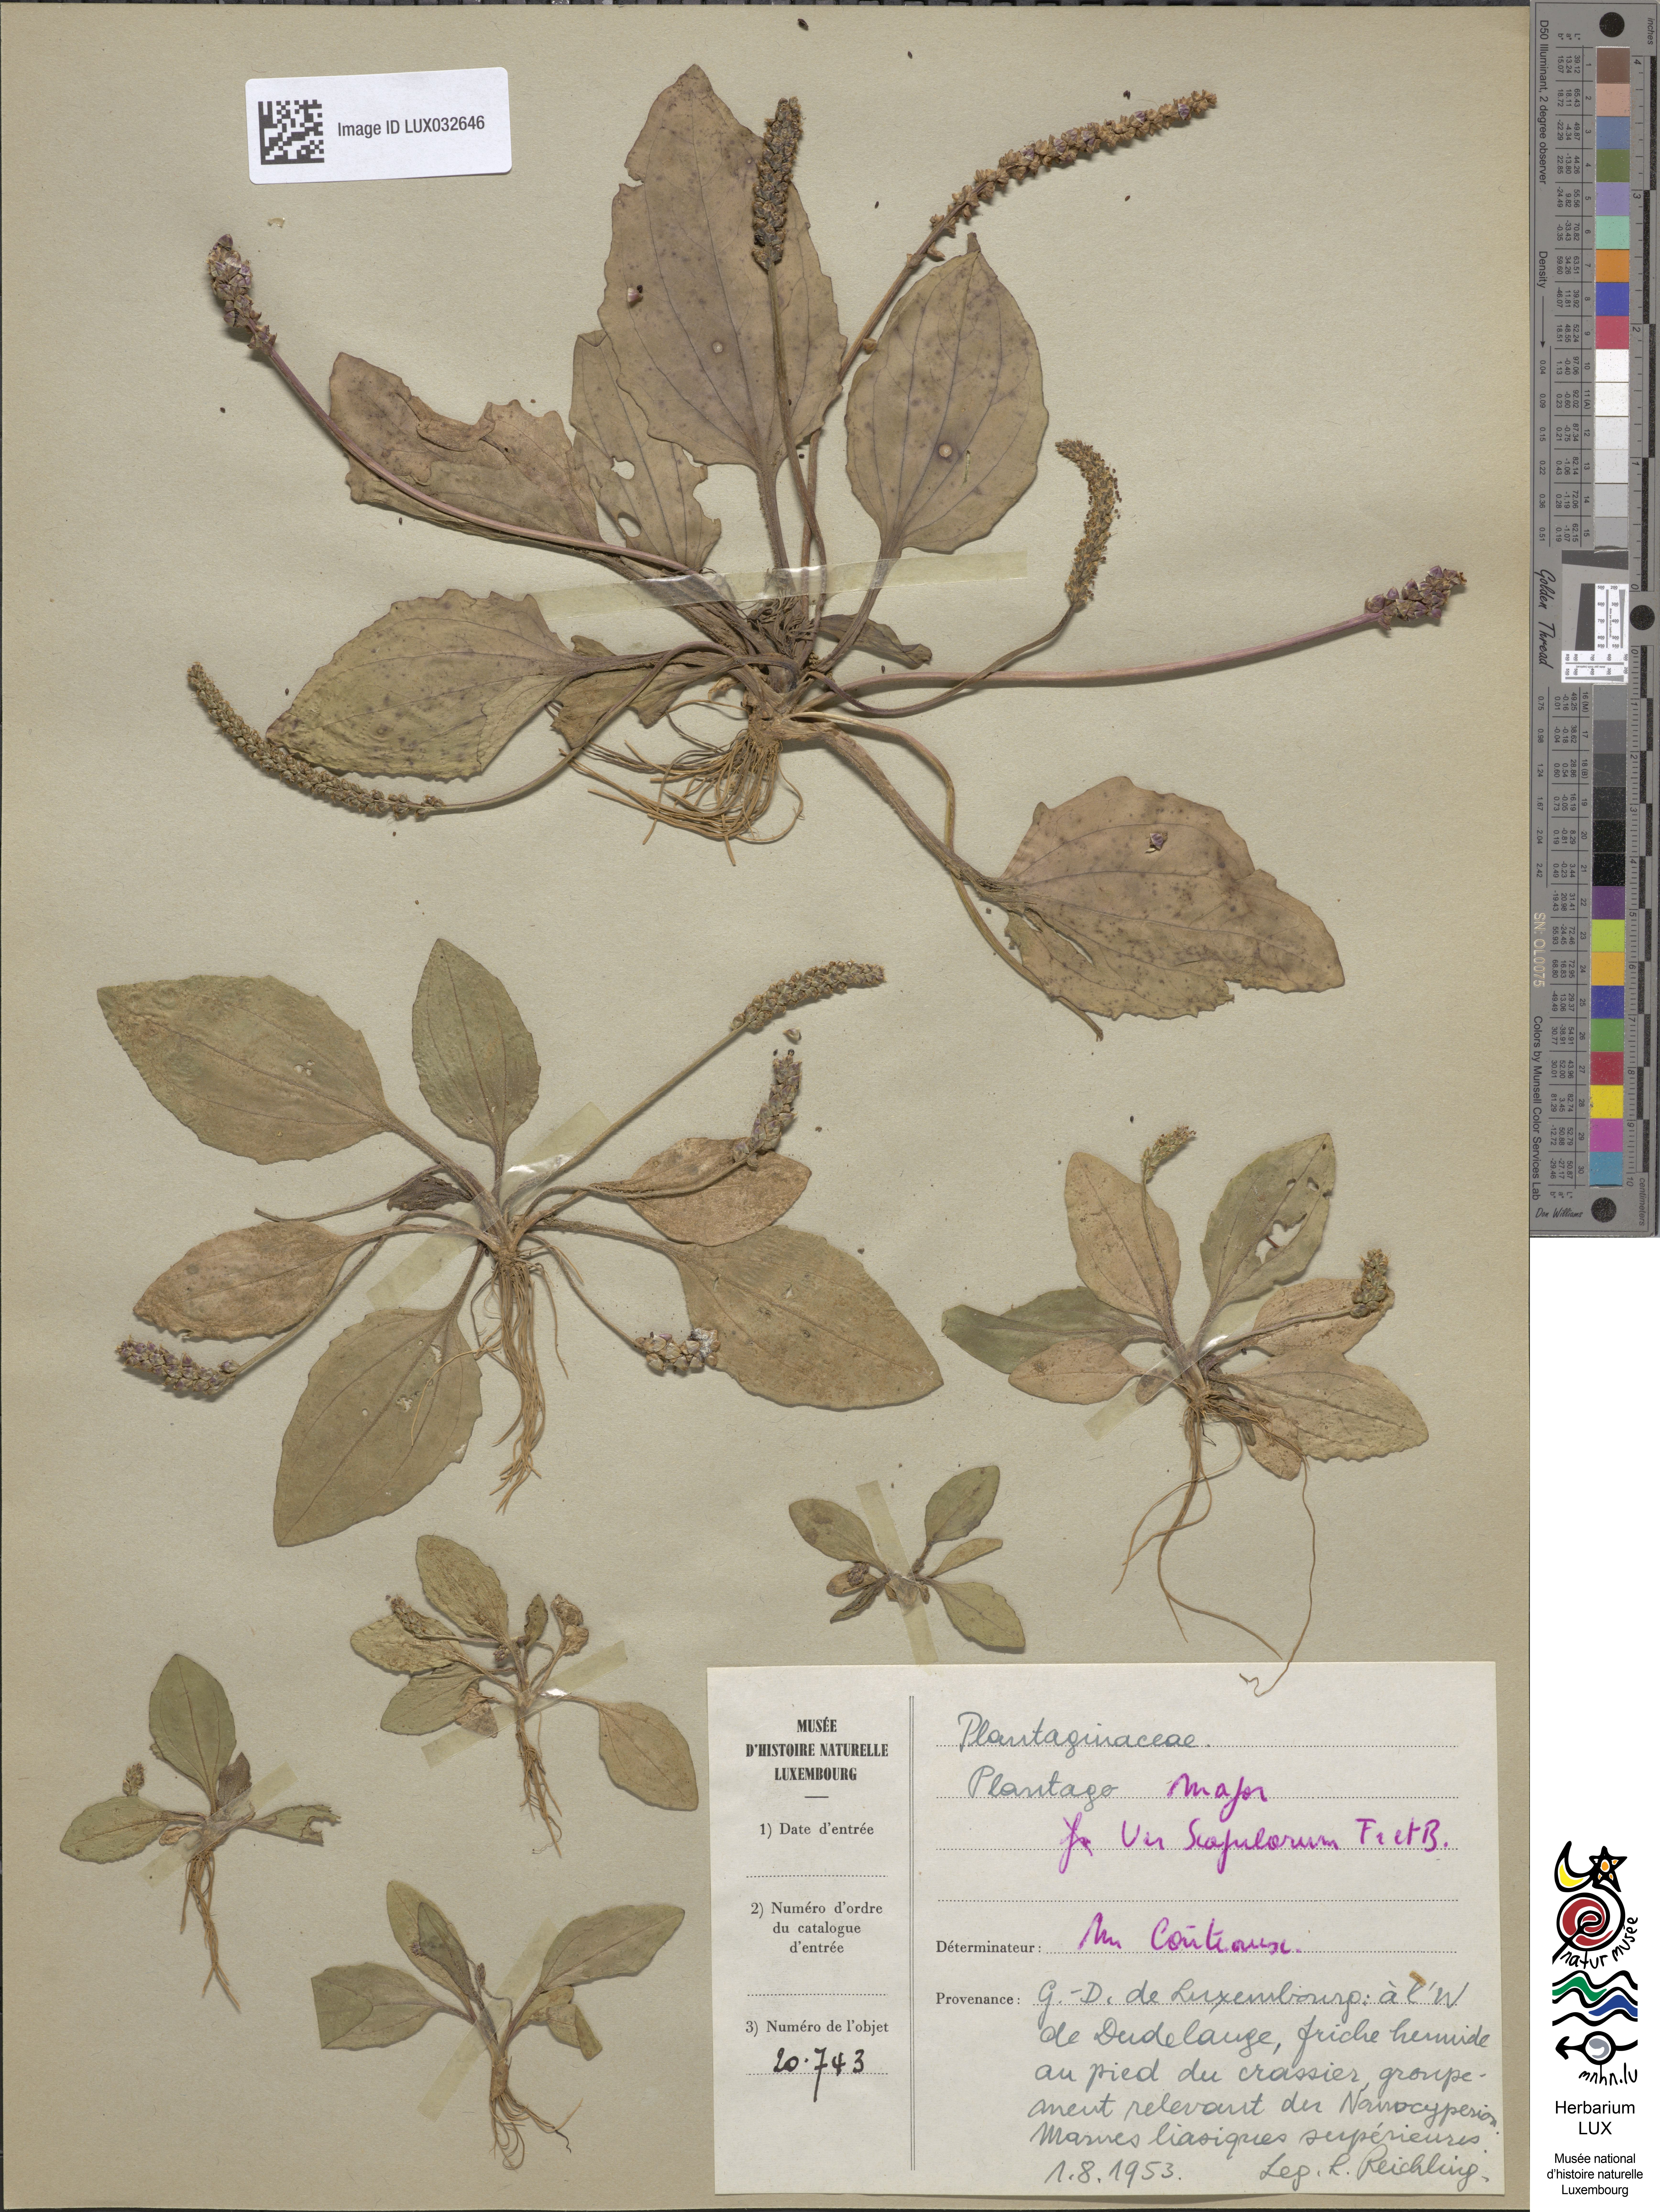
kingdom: Plantae
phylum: Tracheophyta
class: Magnoliopsida
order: Lamiales
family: Plantaginaceae
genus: Plantago
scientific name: Plantago lanceolata
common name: Ribwort plantain
